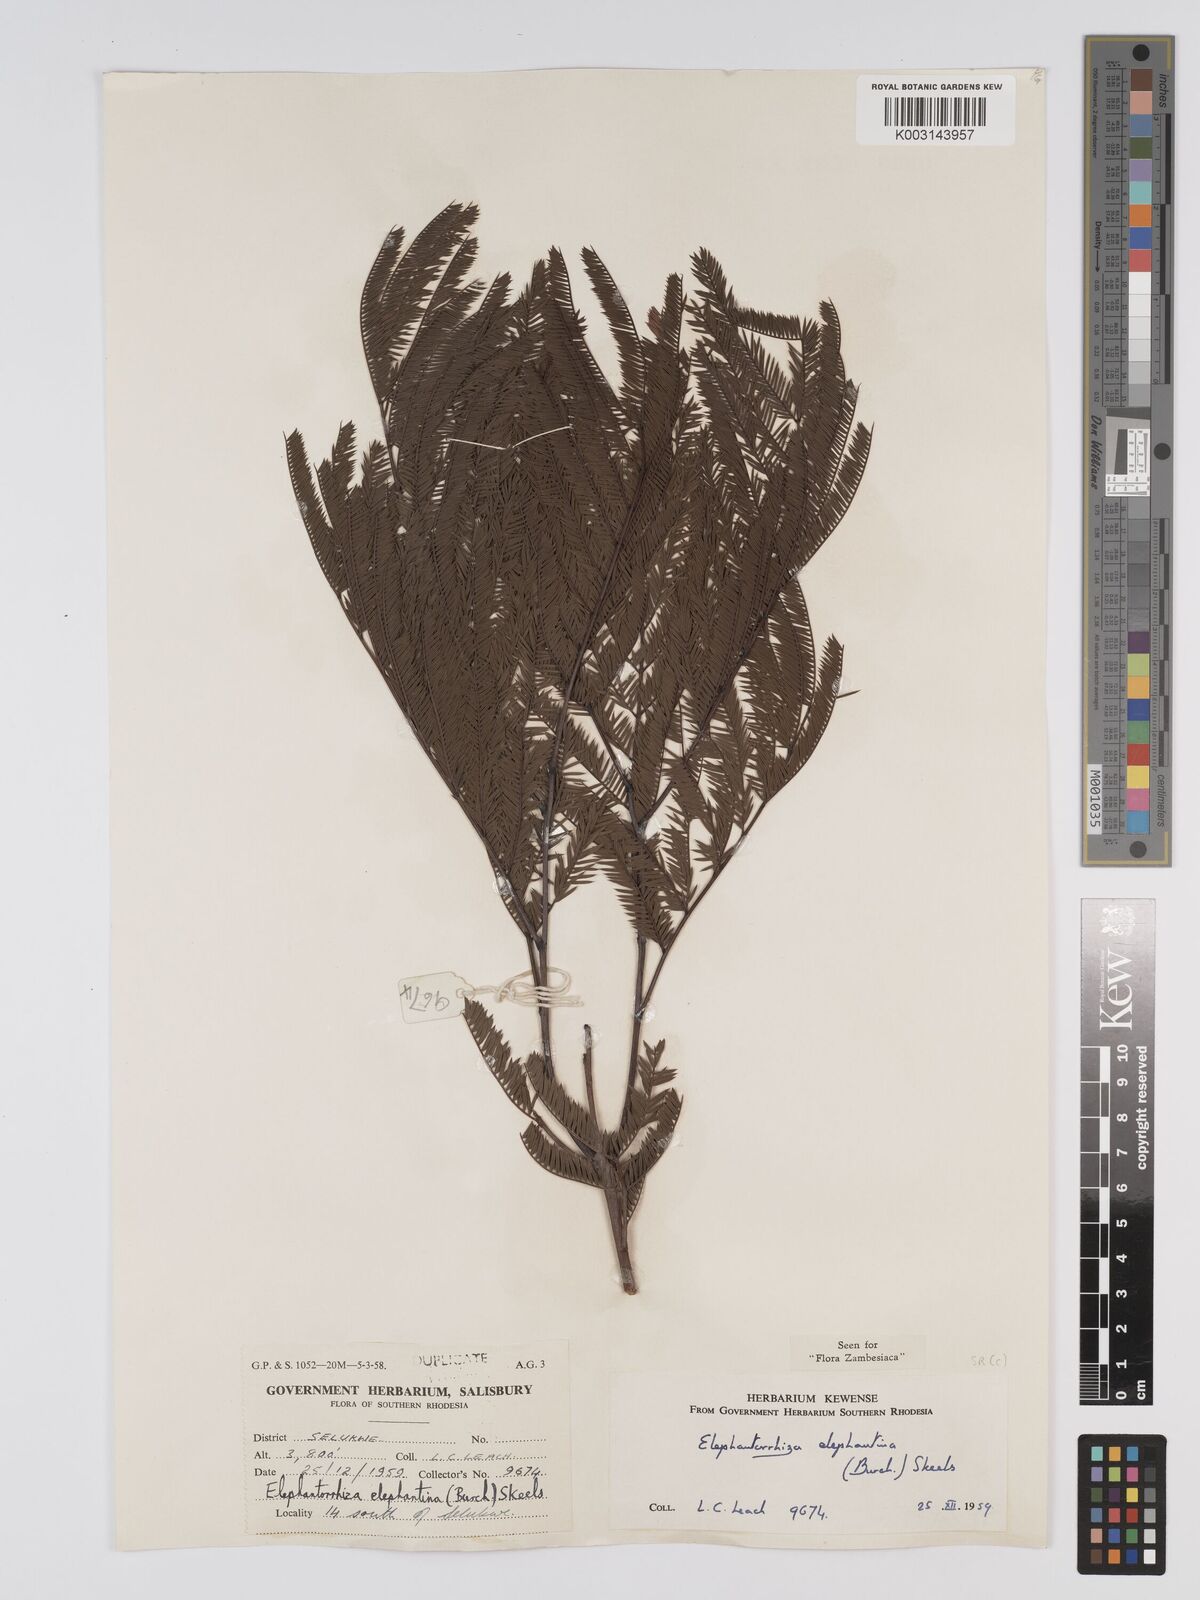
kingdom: Plantae
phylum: Tracheophyta
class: Magnoliopsida
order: Fabales
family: Fabaceae
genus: Elephantorrhiza
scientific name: Elephantorrhiza elephantina
